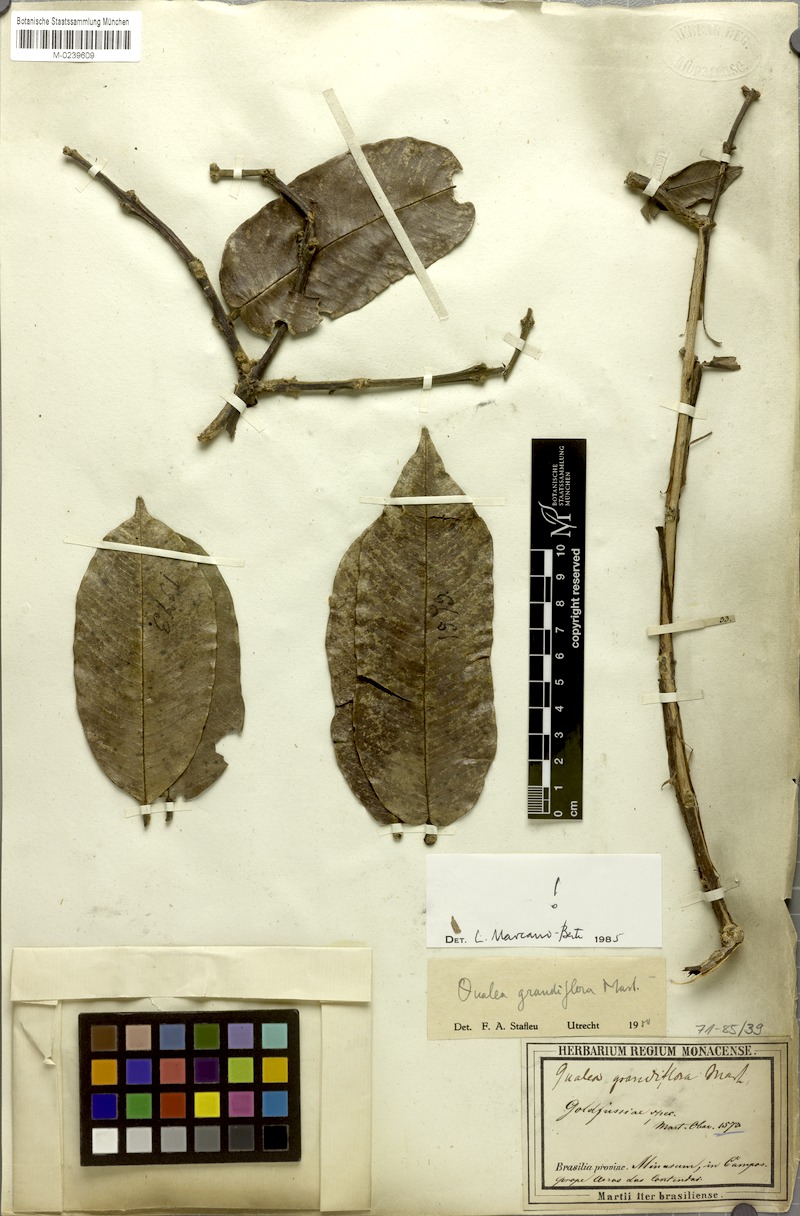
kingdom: Plantae
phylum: Tracheophyta
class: Magnoliopsida
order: Myrtales
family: Vochysiaceae
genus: Qualea
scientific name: Qualea grandiflora
